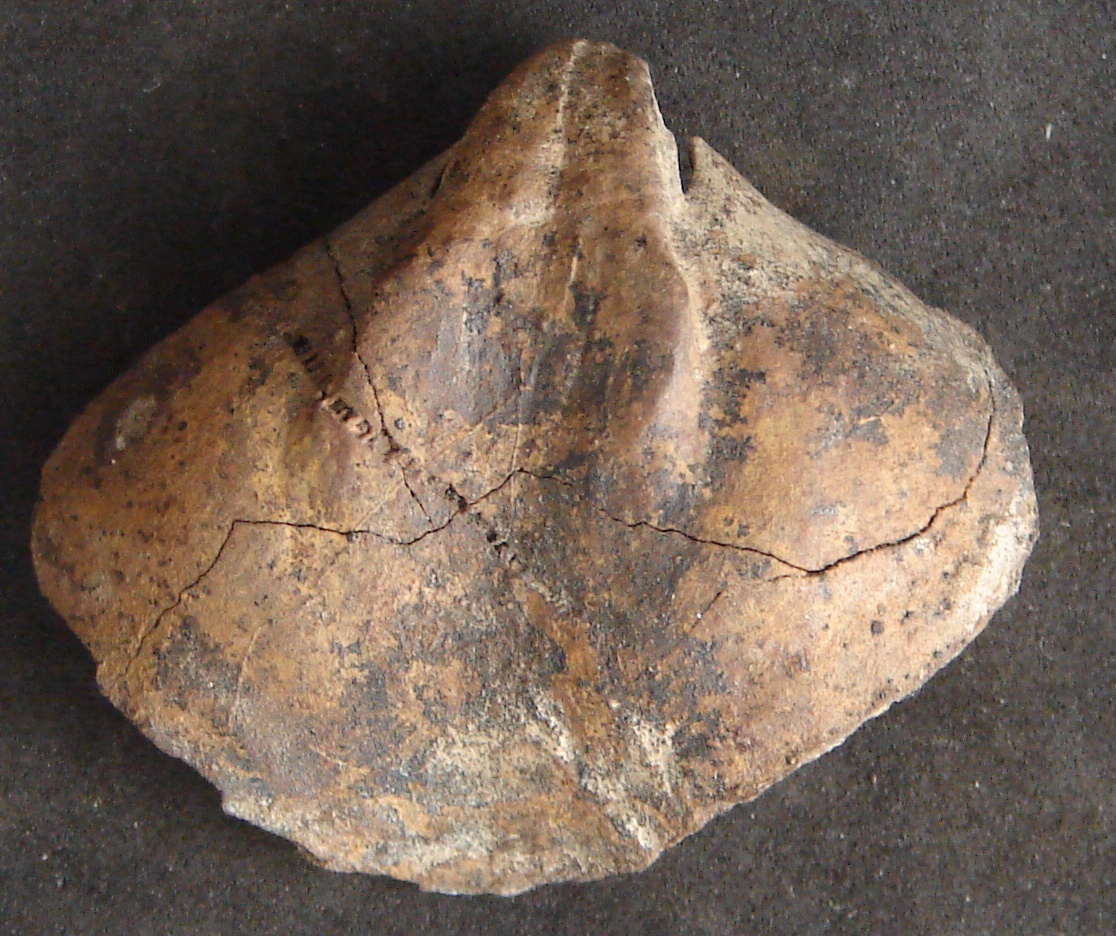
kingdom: Animalia
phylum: Brachiopoda
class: Rhynchonellata
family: Spiriferidae
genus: Eliva
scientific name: Eliva Spirifer panduriformis
